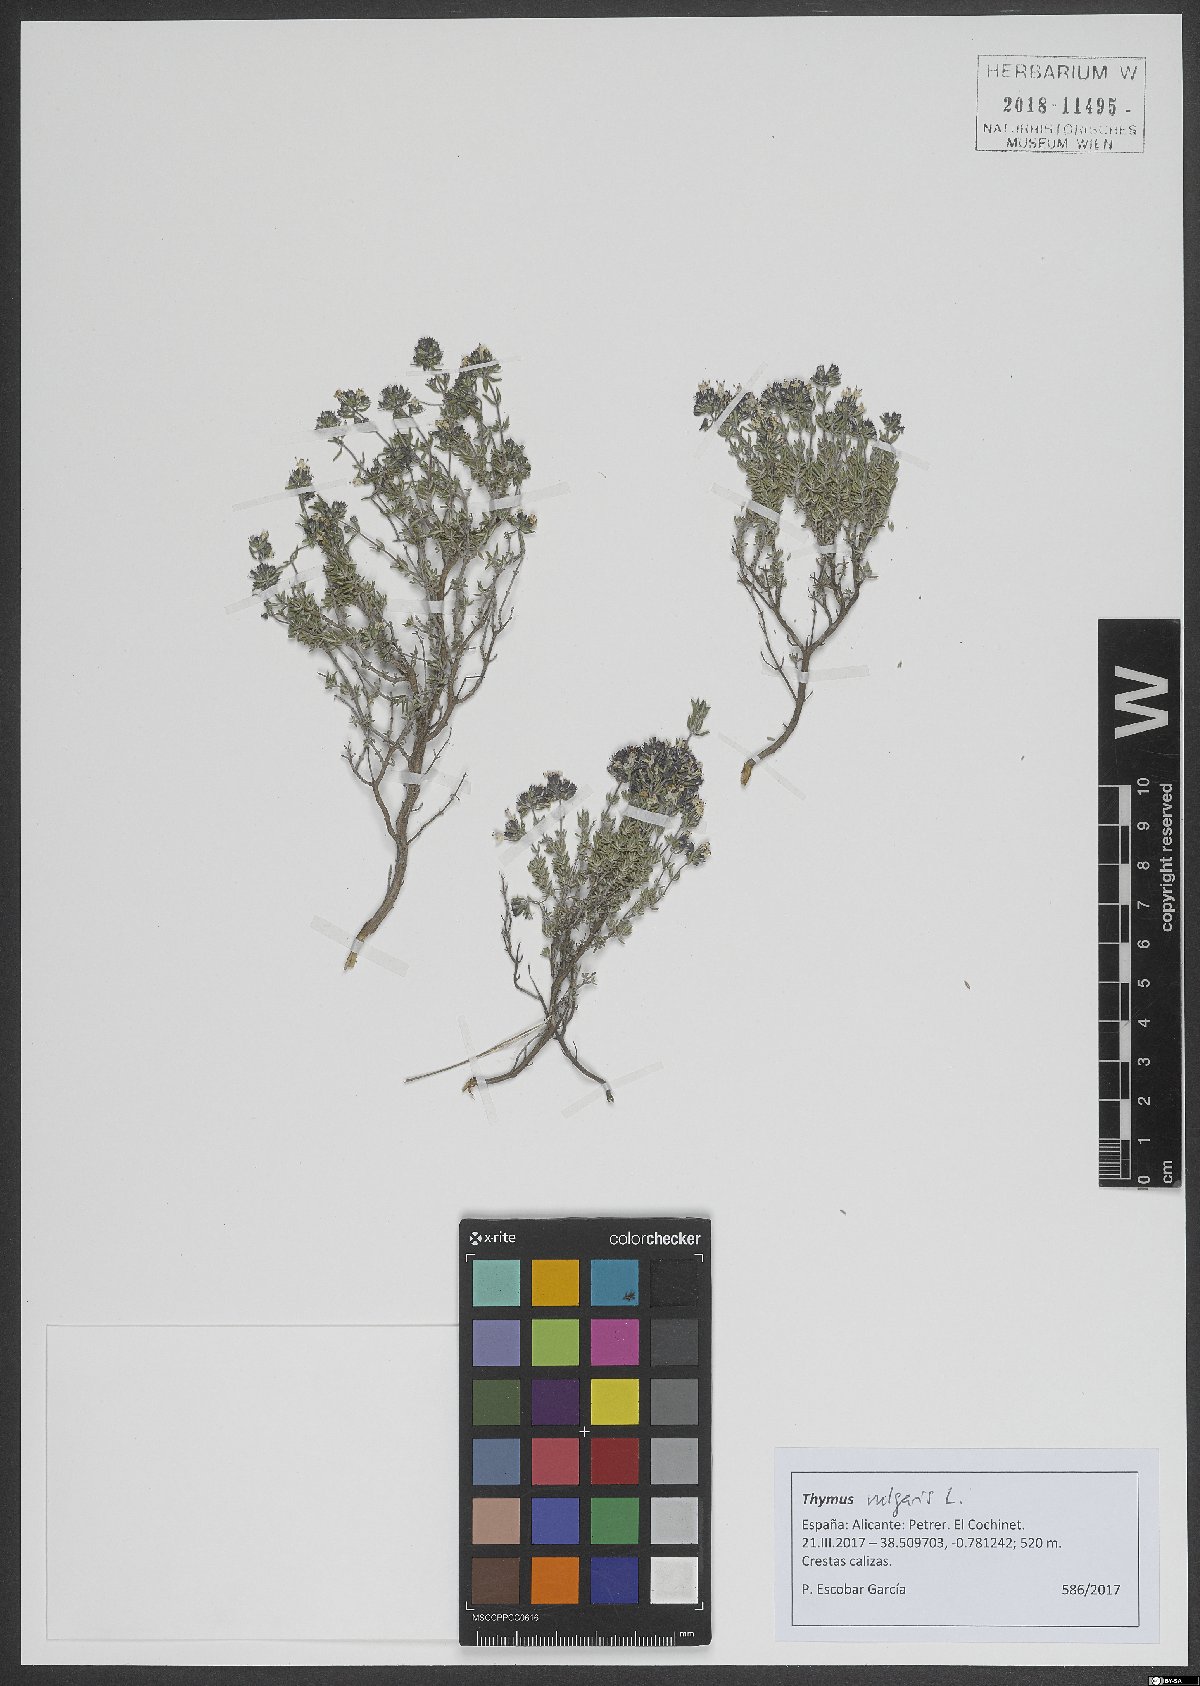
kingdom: Plantae
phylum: Tracheophyta
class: Magnoliopsida
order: Lamiales
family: Lamiaceae
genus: Thymus
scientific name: Thymus vulgaris
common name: Garden thyme
